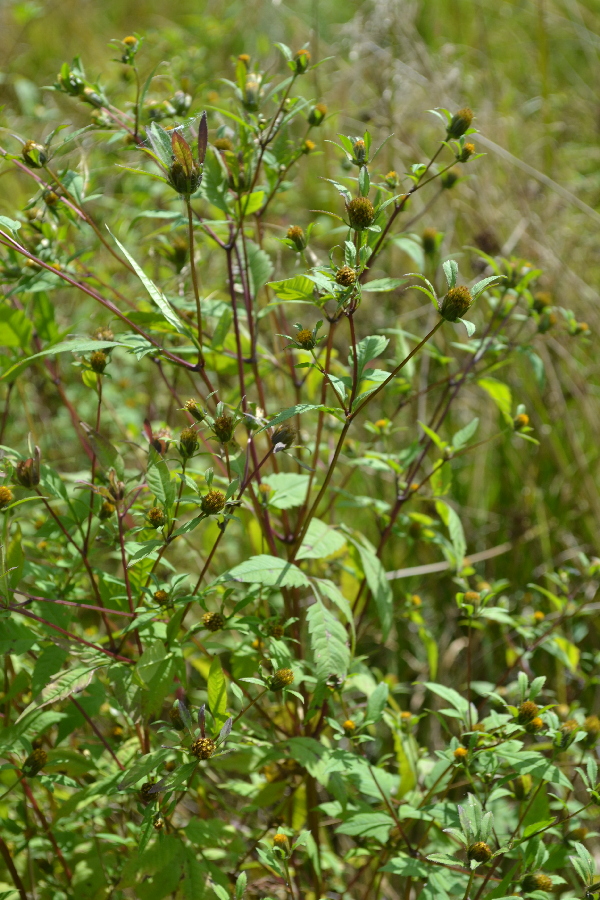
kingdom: Plantae
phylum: Tracheophyta
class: Magnoliopsida
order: Asterales
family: Asteraceae
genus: Bidens
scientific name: Bidens frondosa
